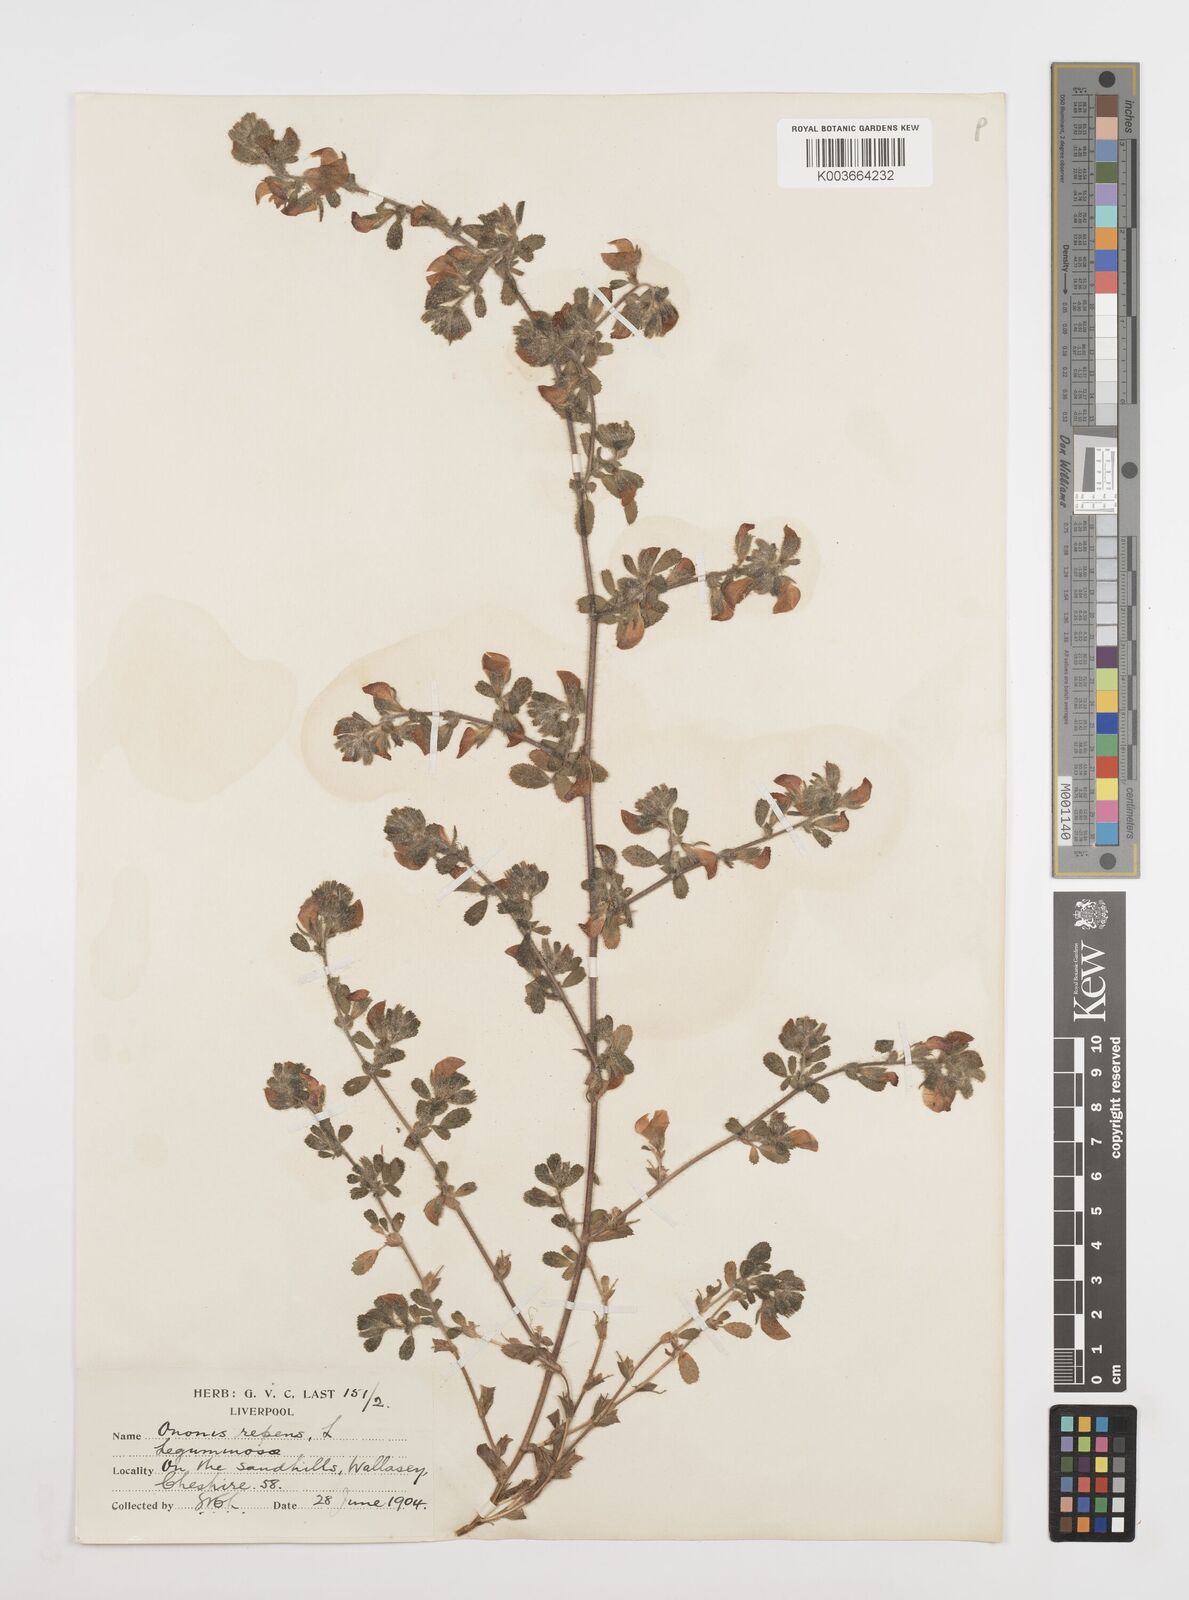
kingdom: Plantae
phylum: Tracheophyta
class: Magnoliopsida
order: Fabales
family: Fabaceae
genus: Ononis
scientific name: Ononis spinosa
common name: Spiny restharrow
